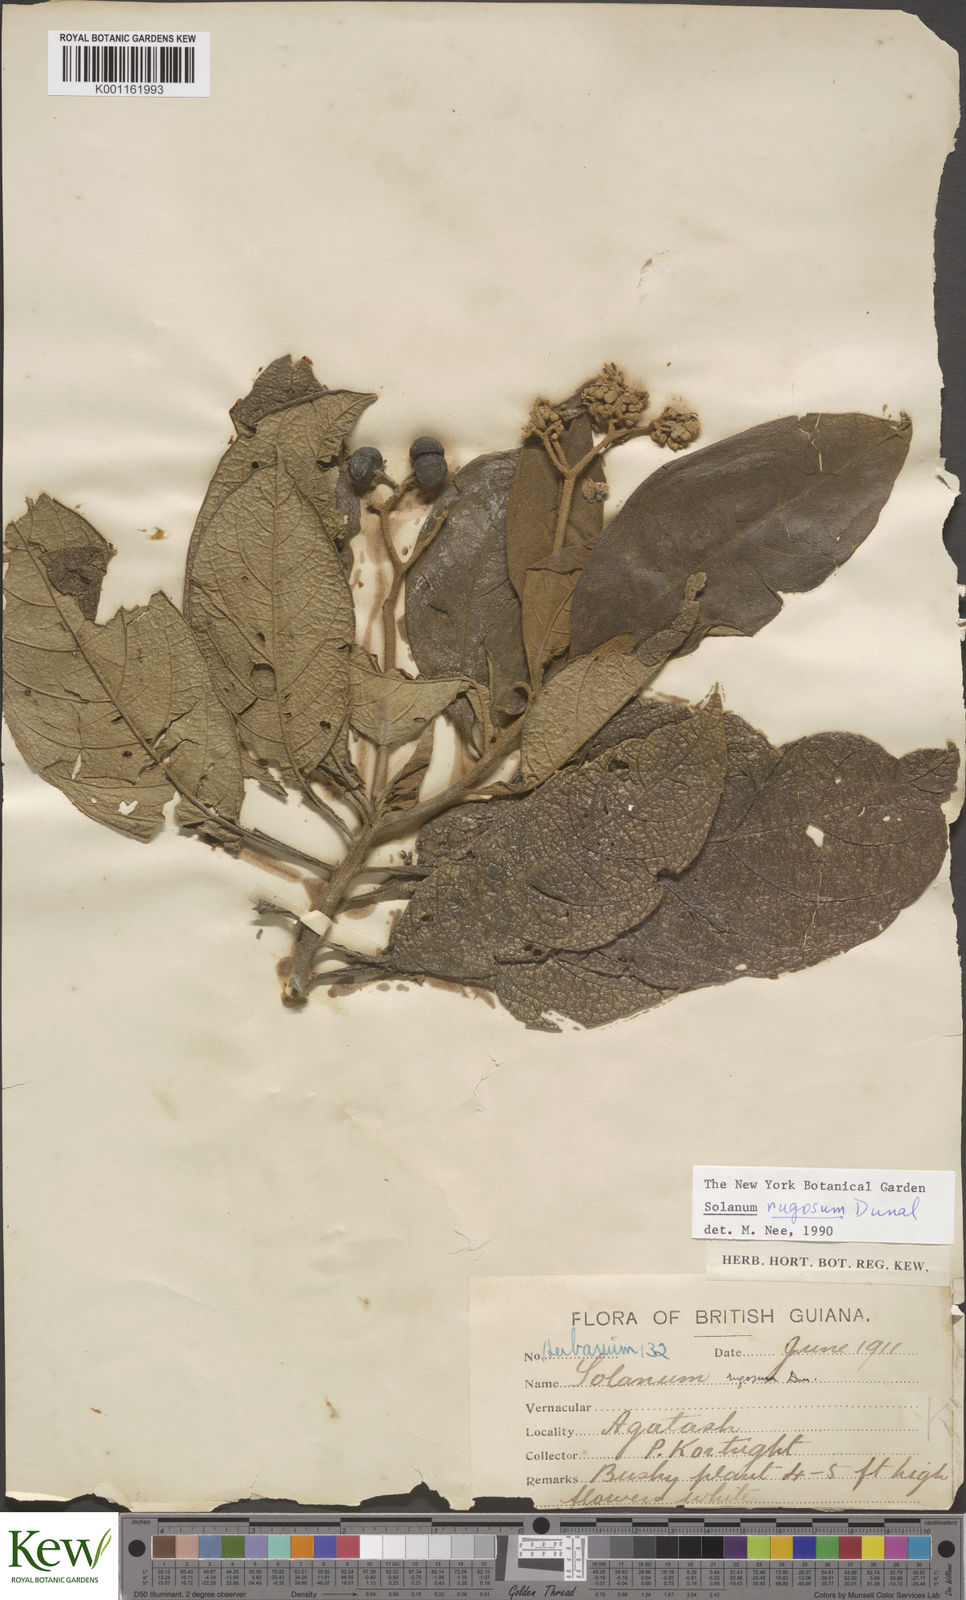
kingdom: Plantae
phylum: Tracheophyta
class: Magnoliopsida
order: Solanales
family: Solanaceae
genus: Solanum
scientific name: Solanum rugosum
